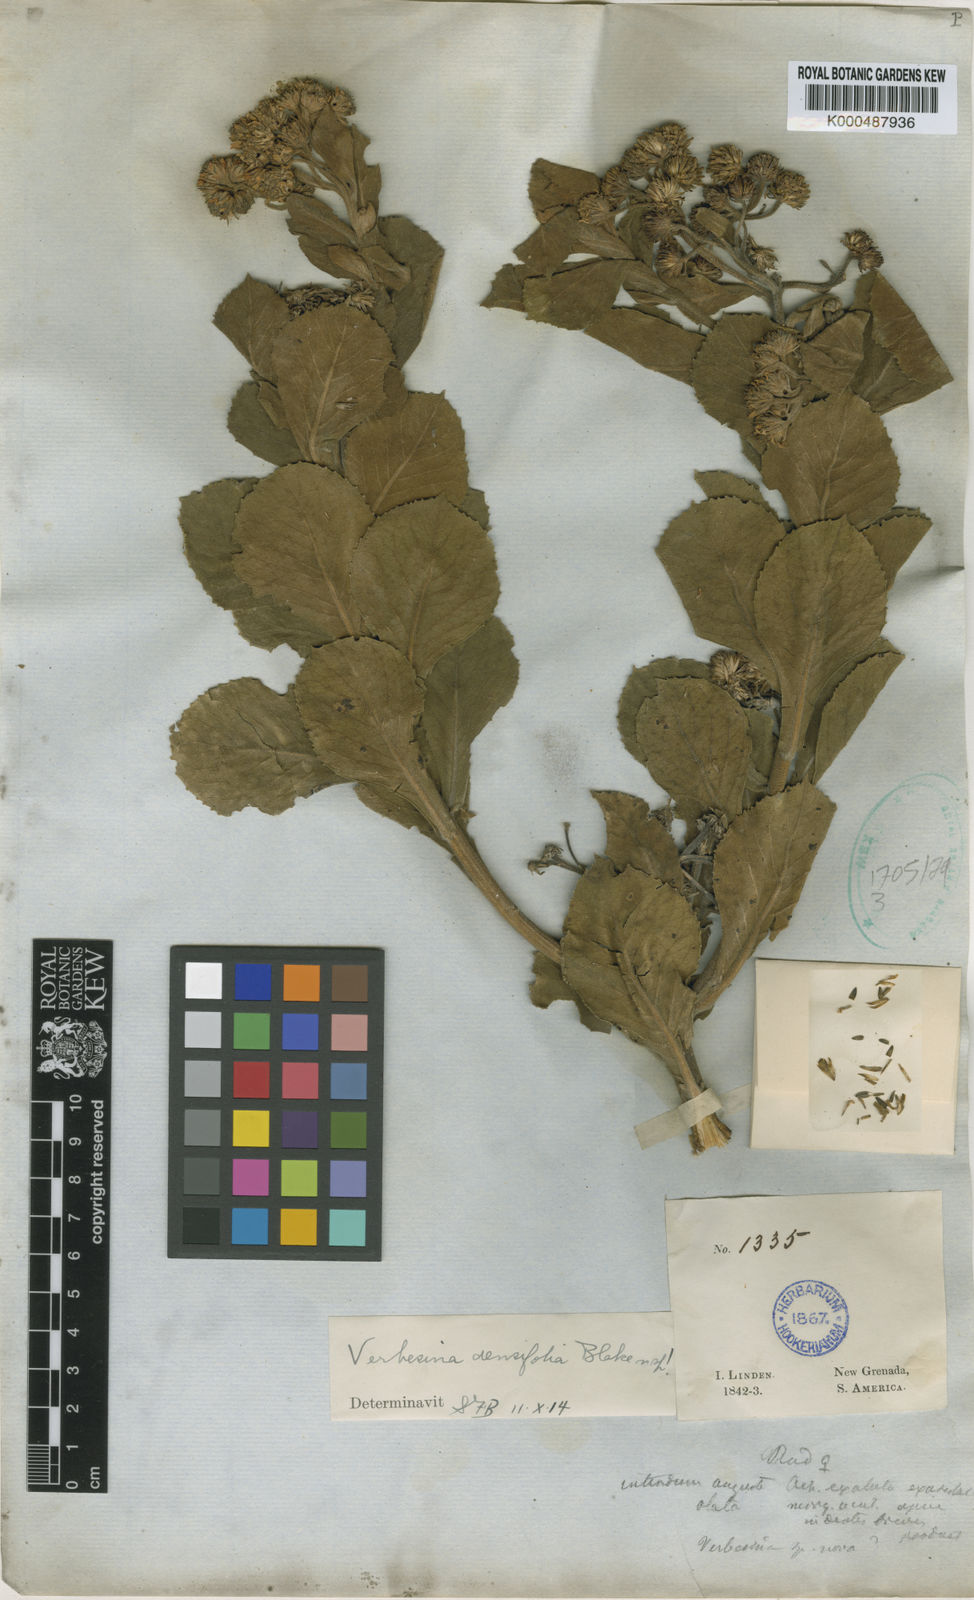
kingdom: Plantae
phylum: Tracheophyta
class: Magnoliopsida
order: Asterales
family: Asteraceae
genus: Verbesina
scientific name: Verbesina densifolia
